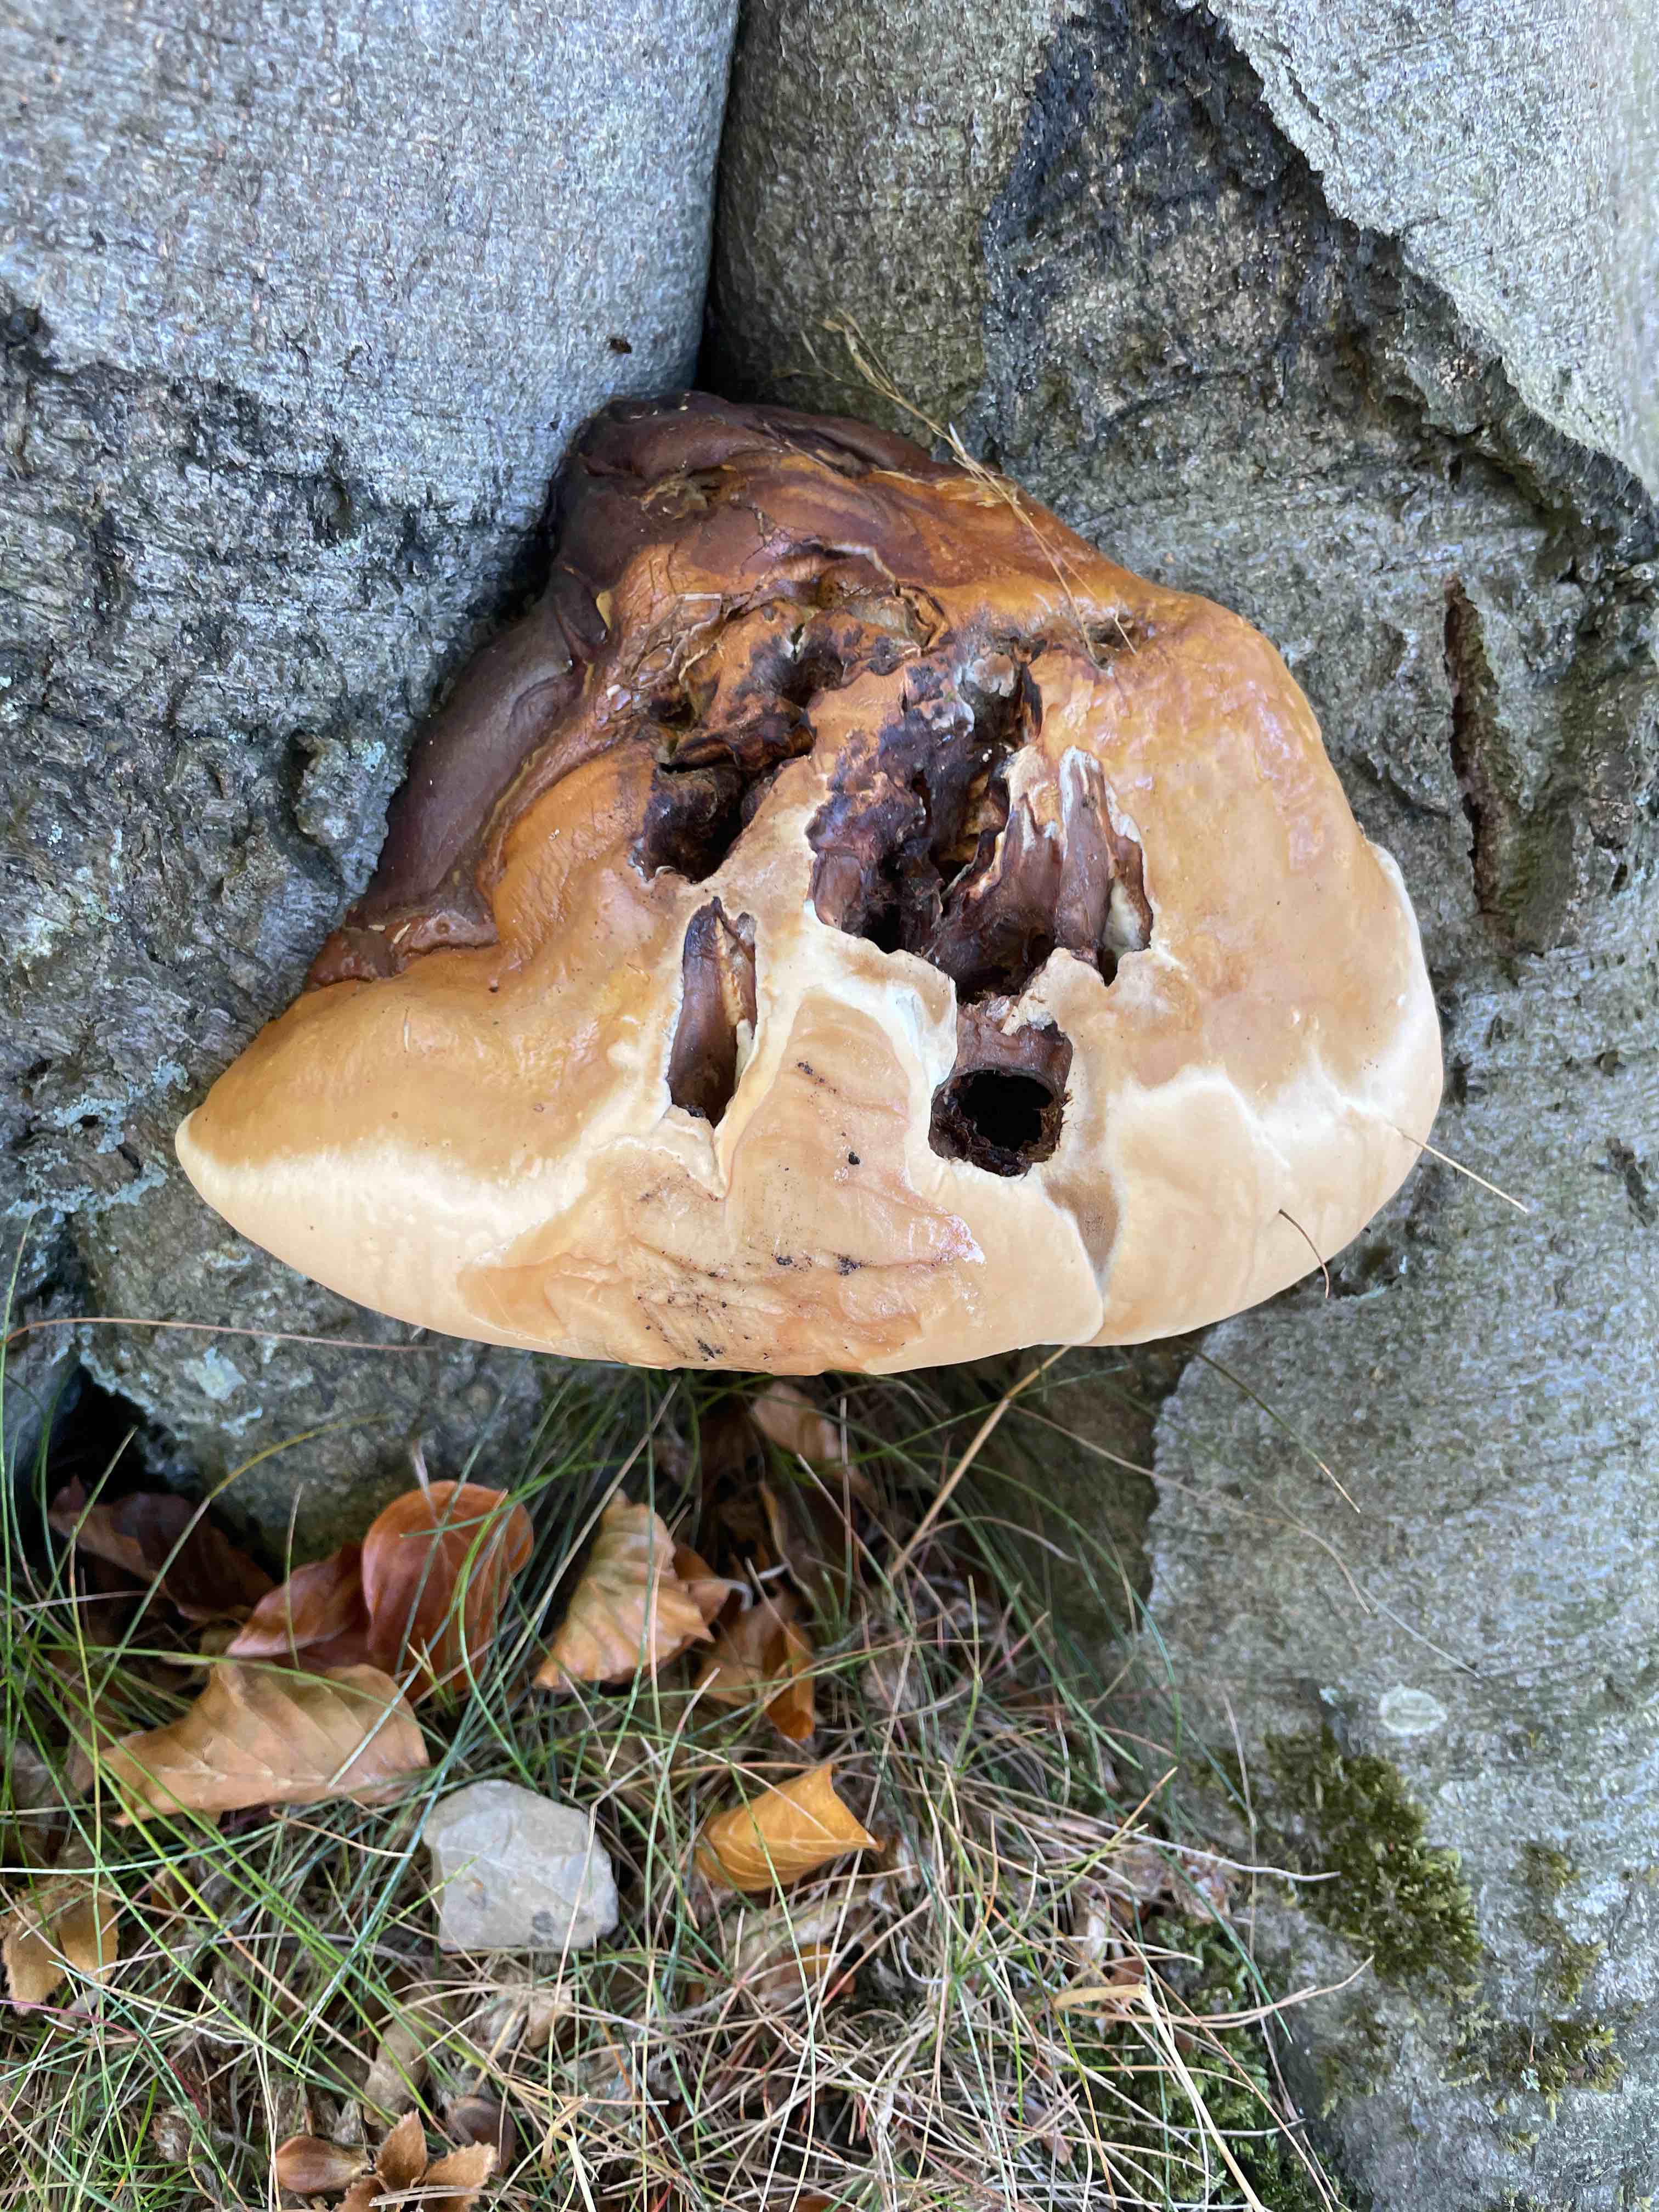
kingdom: Fungi
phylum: Basidiomycota
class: Agaricomycetes
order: Polyporales
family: Polyporaceae
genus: Ganoderma
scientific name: Ganoderma
